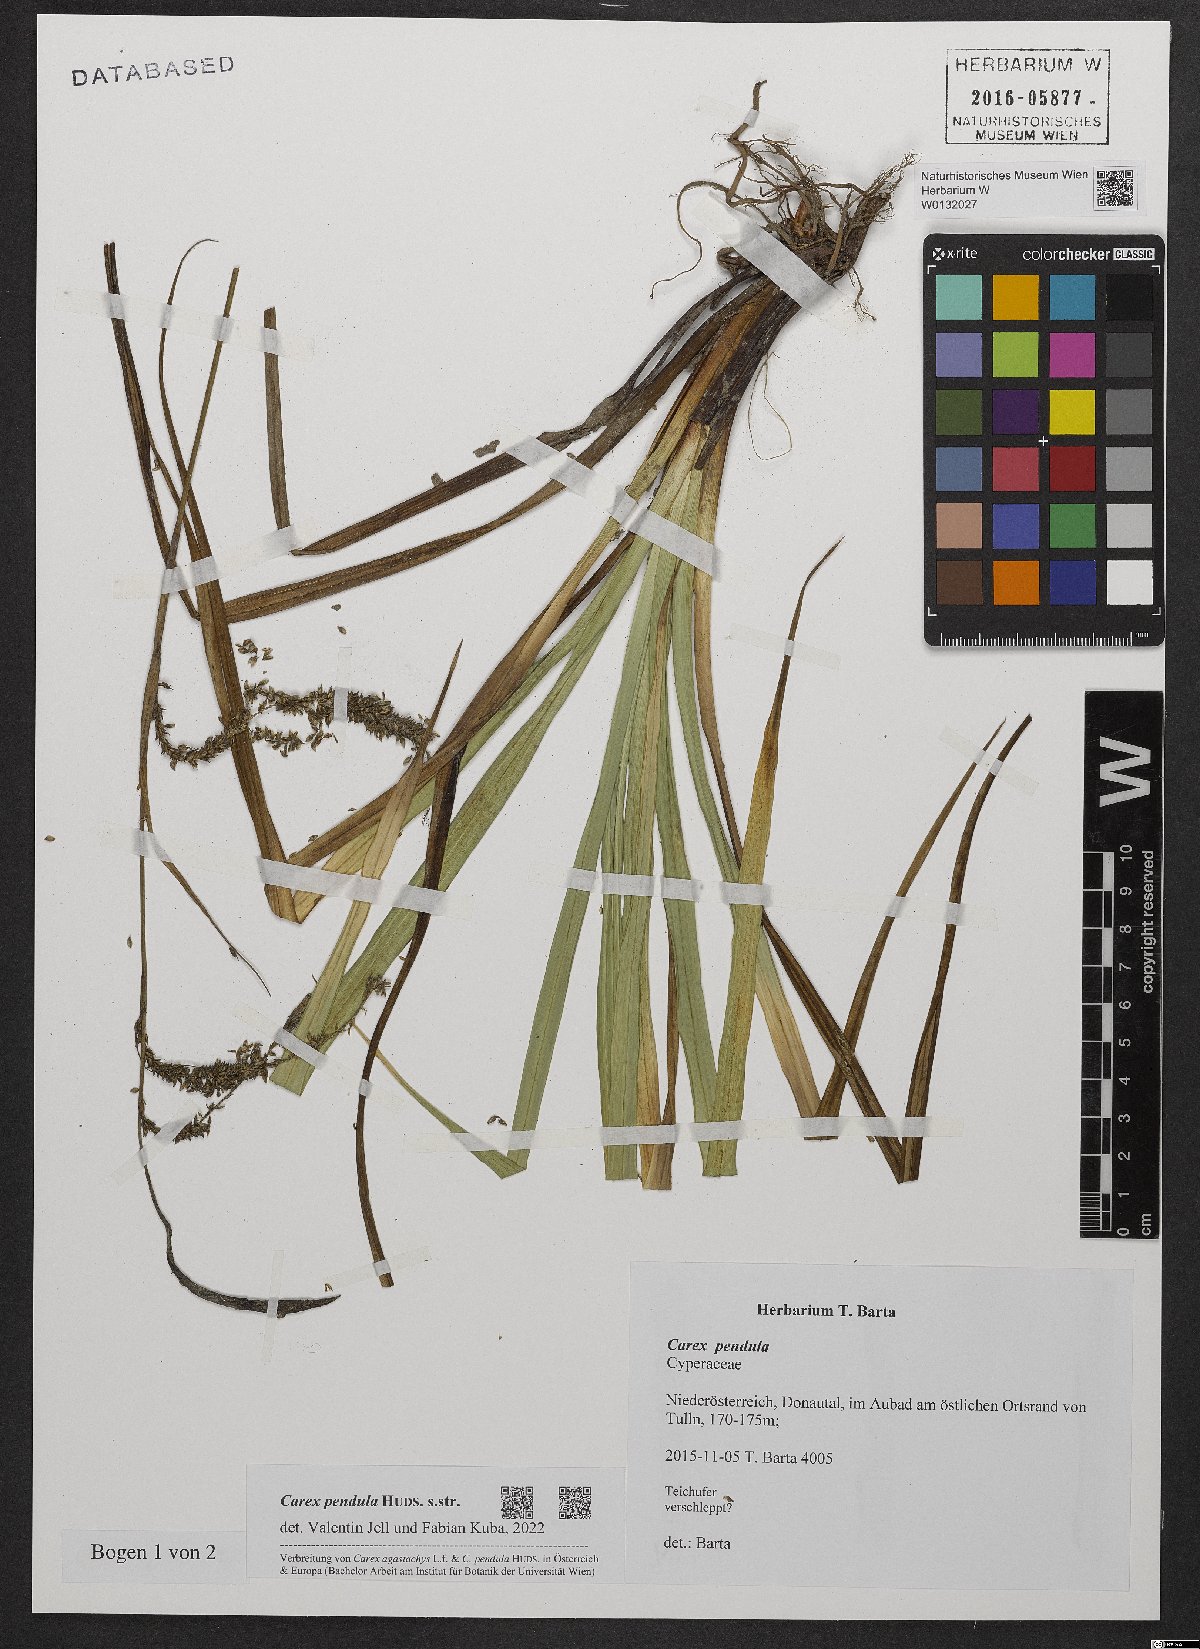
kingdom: Plantae
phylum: Tracheophyta
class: Liliopsida
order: Poales
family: Cyperaceae
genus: Carex
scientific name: Carex pendula
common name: Pendulous sedge
